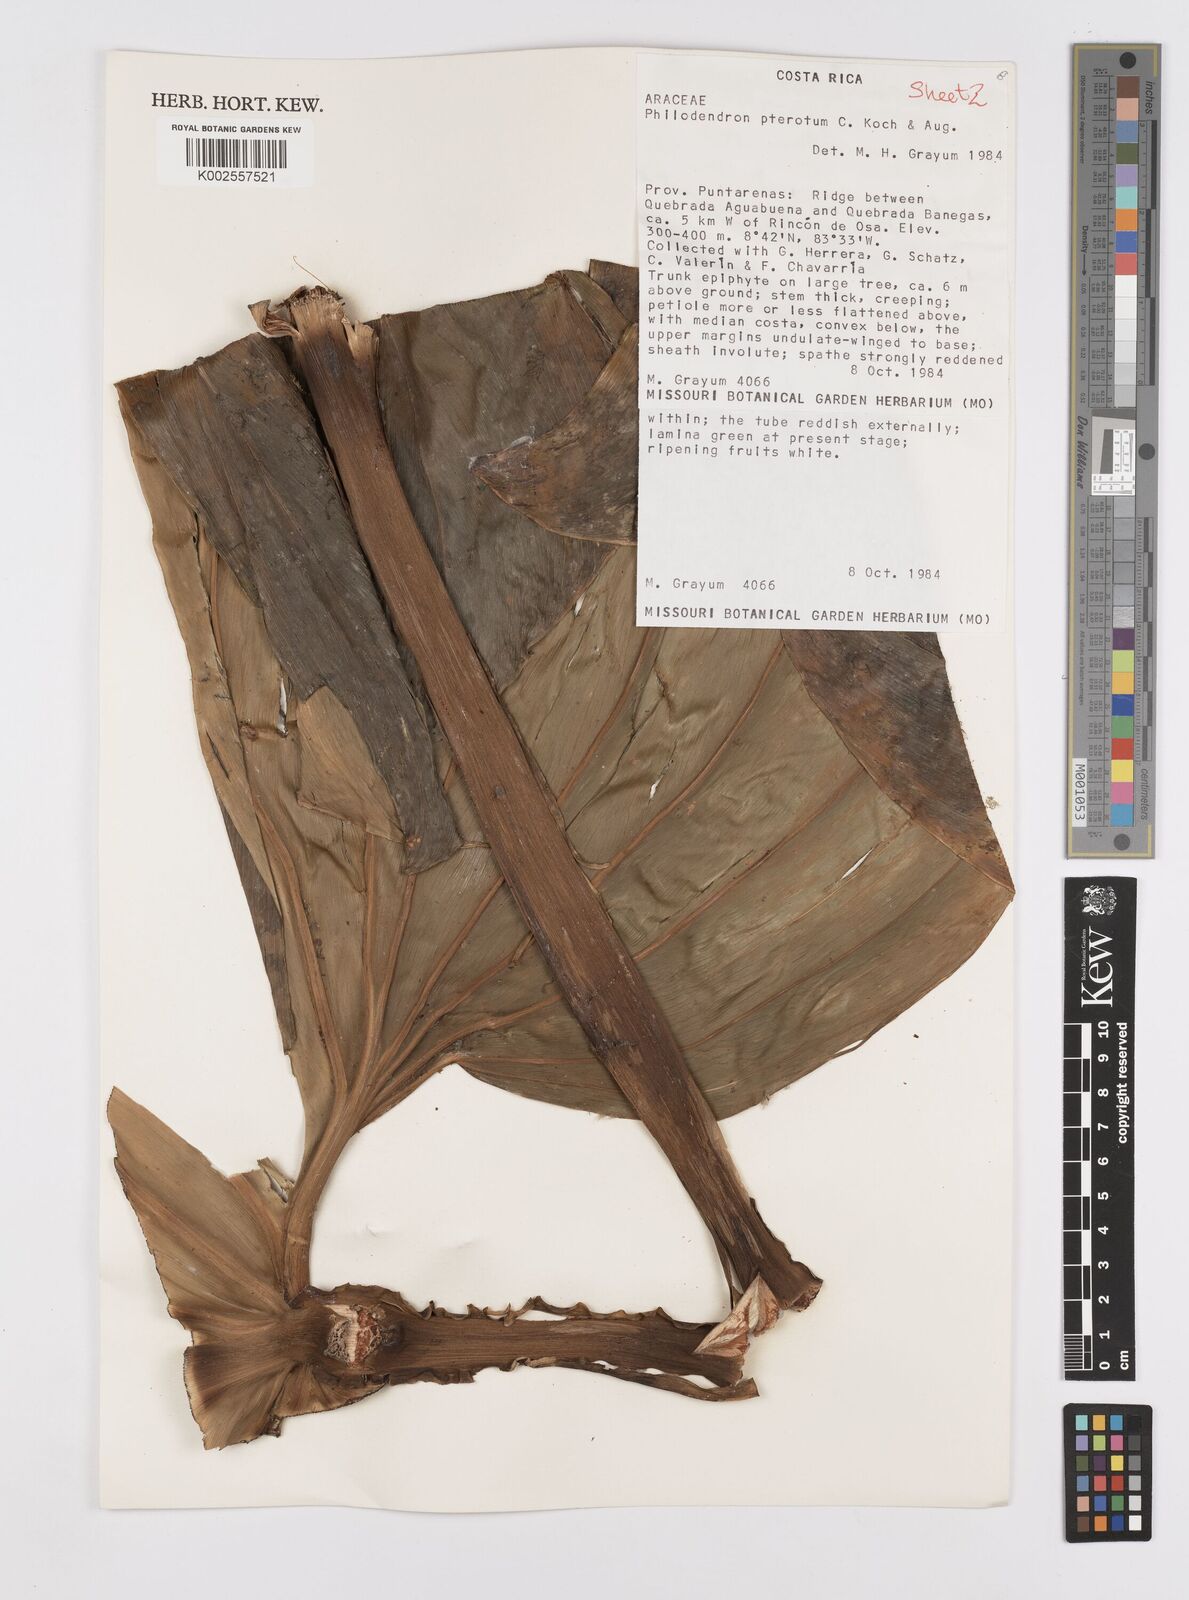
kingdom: Plantae
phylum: Tracheophyta
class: Liliopsida
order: Alismatales
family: Araceae
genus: Philodendron
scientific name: Philodendron pterotum
